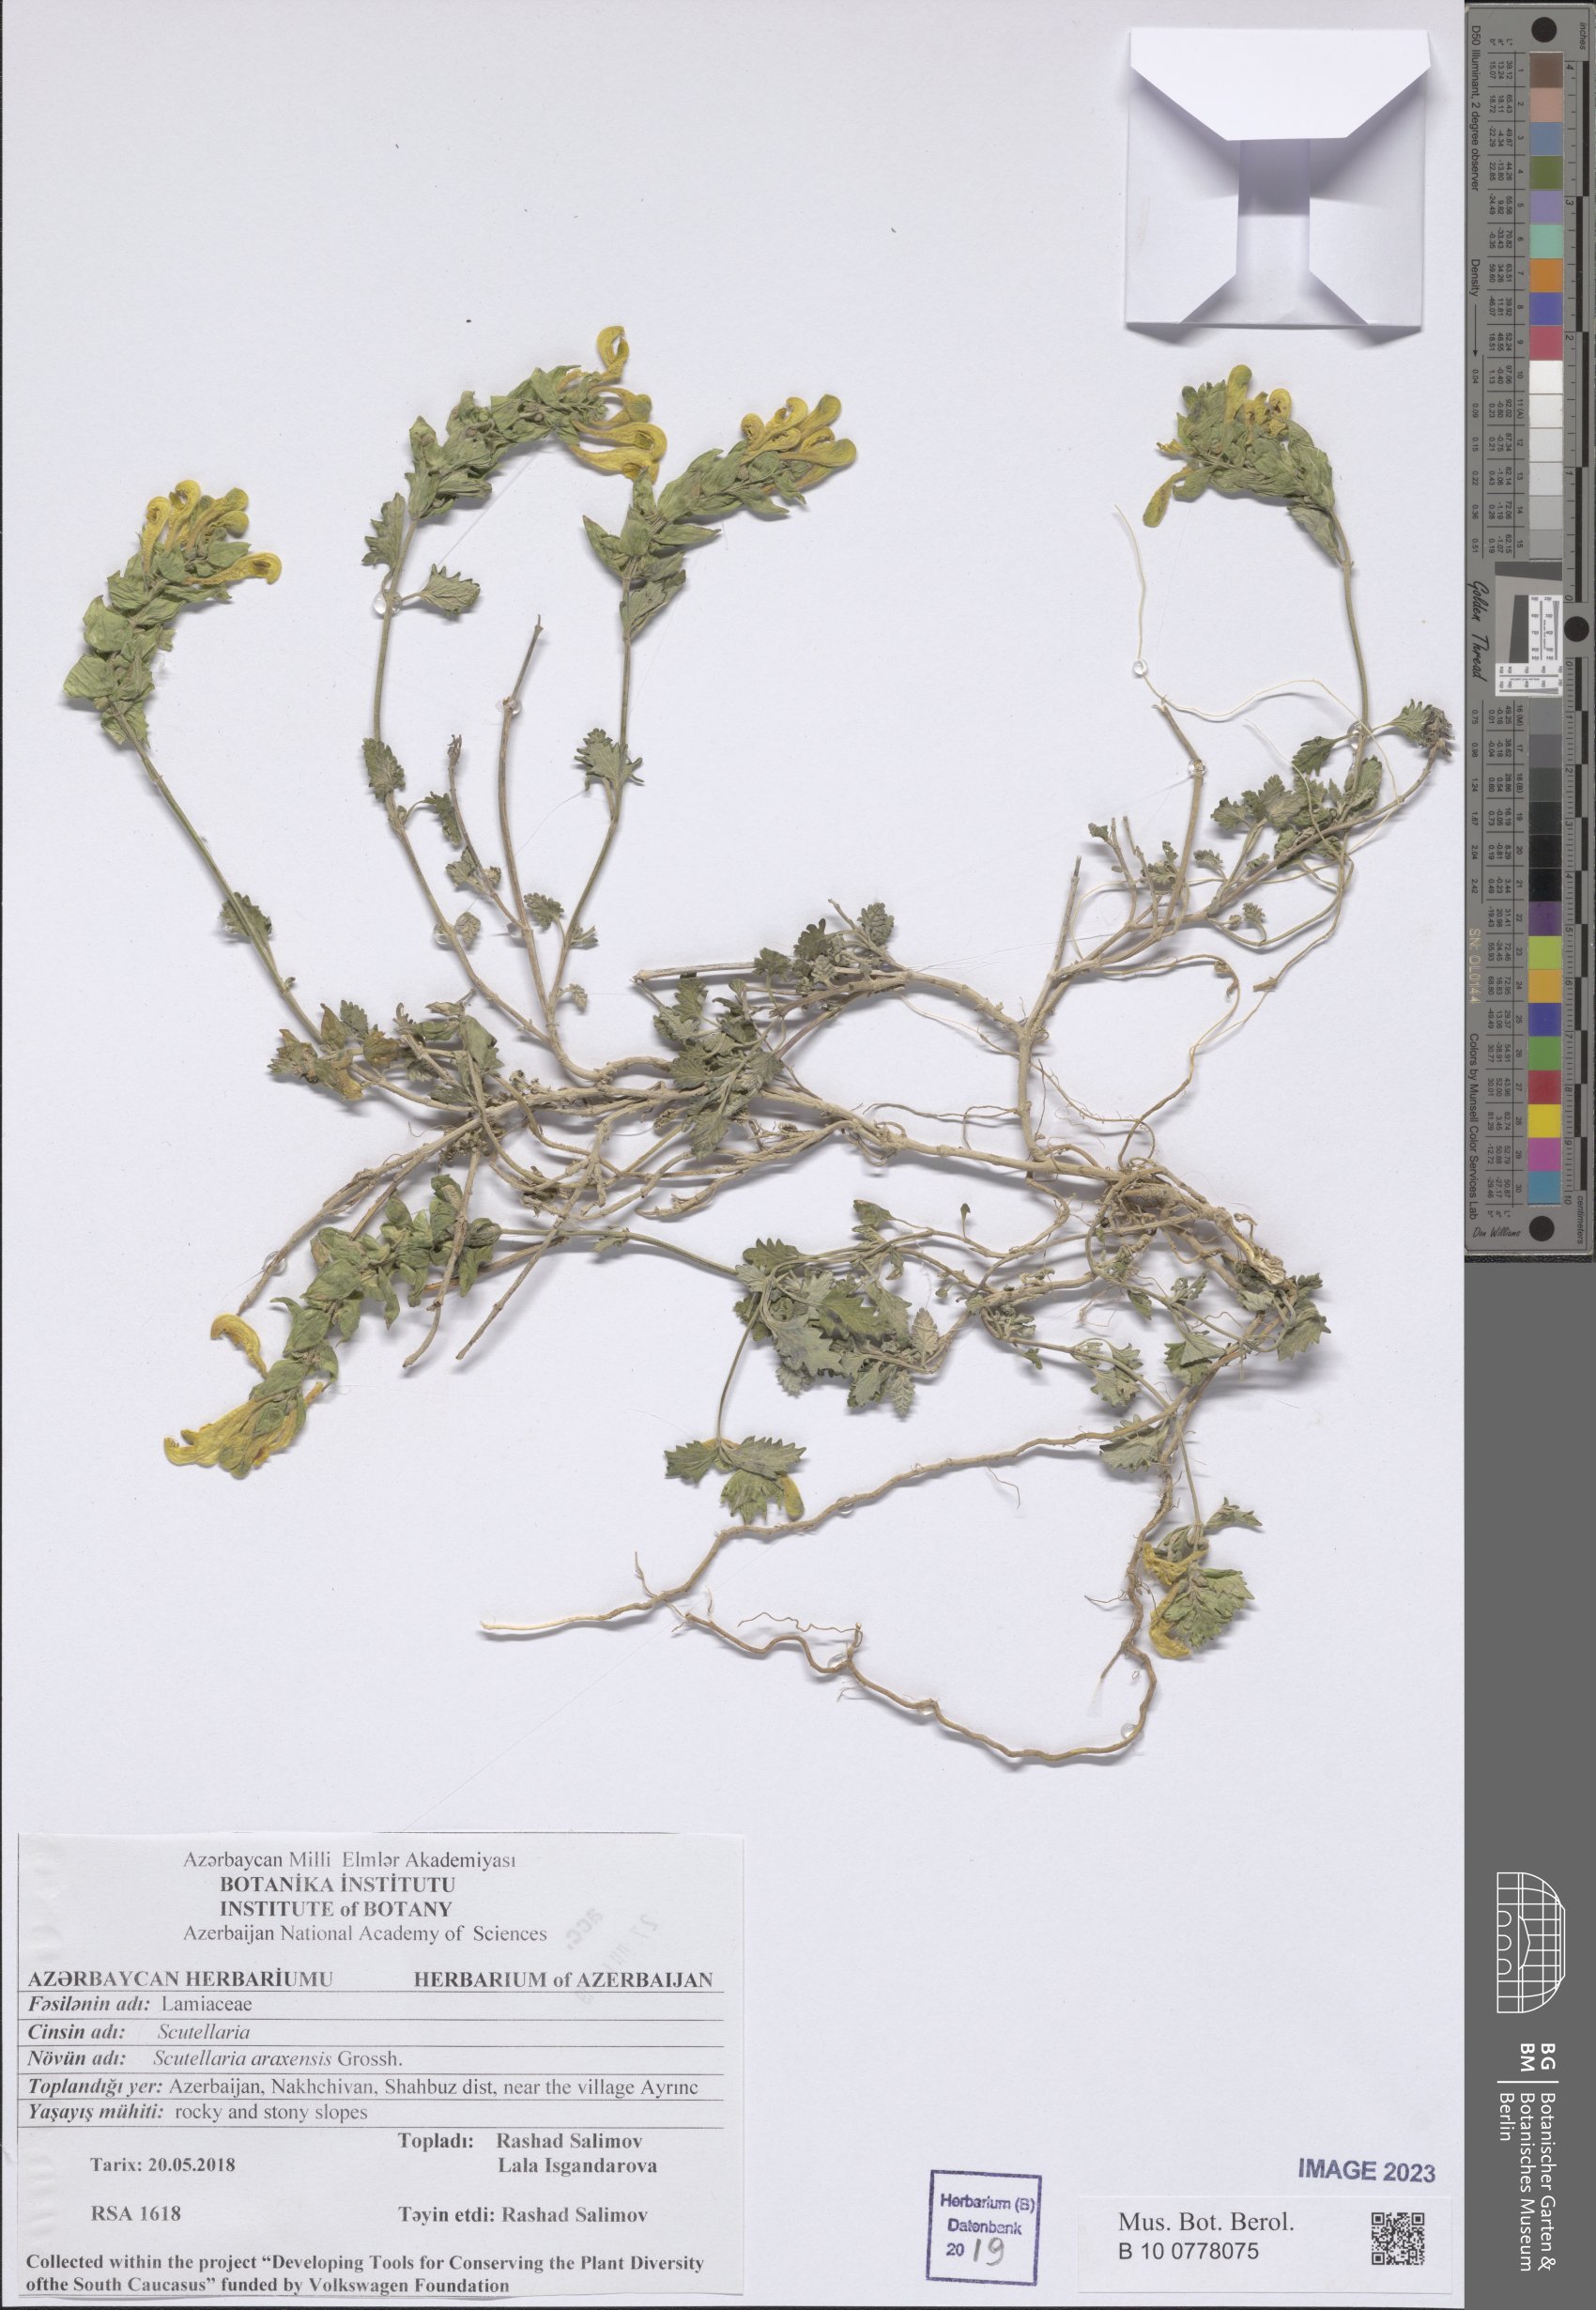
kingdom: Plantae
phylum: Tracheophyta
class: Magnoliopsida
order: Lamiales
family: Lamiaceae
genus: Scutellaria
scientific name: Scutellaria araxensis
